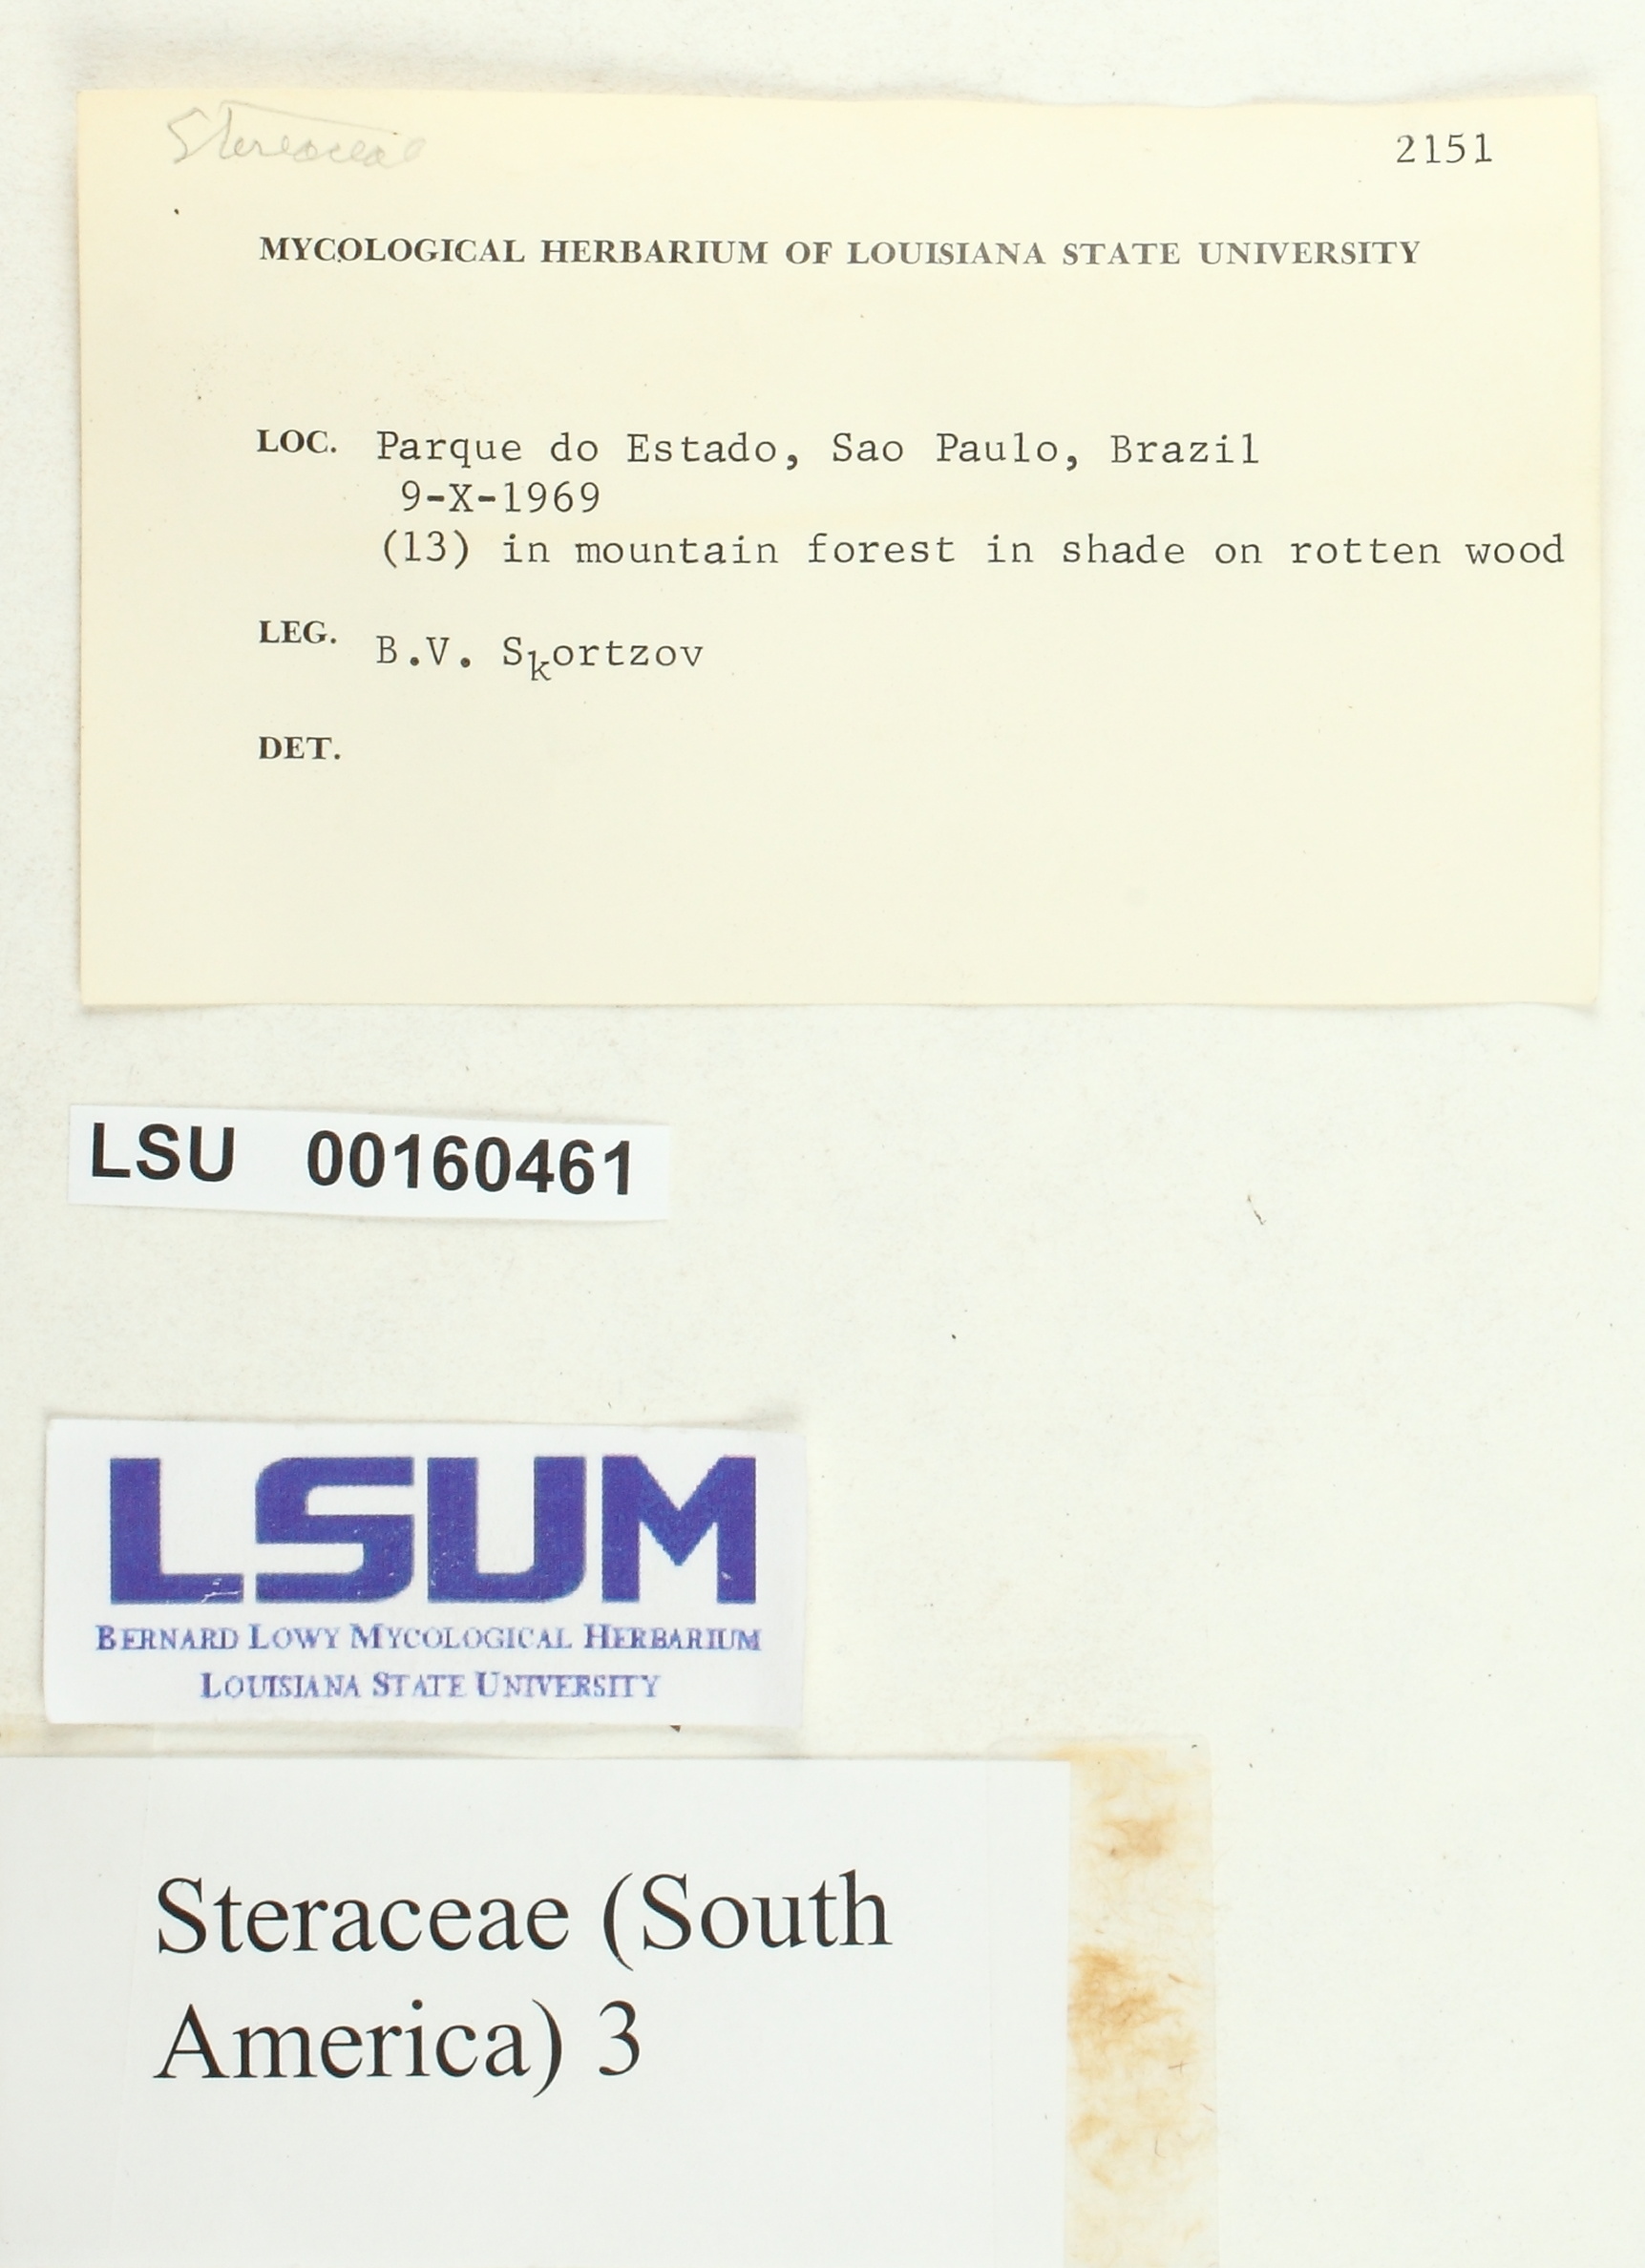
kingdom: Fungi
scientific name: Fungi
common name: Fungi
